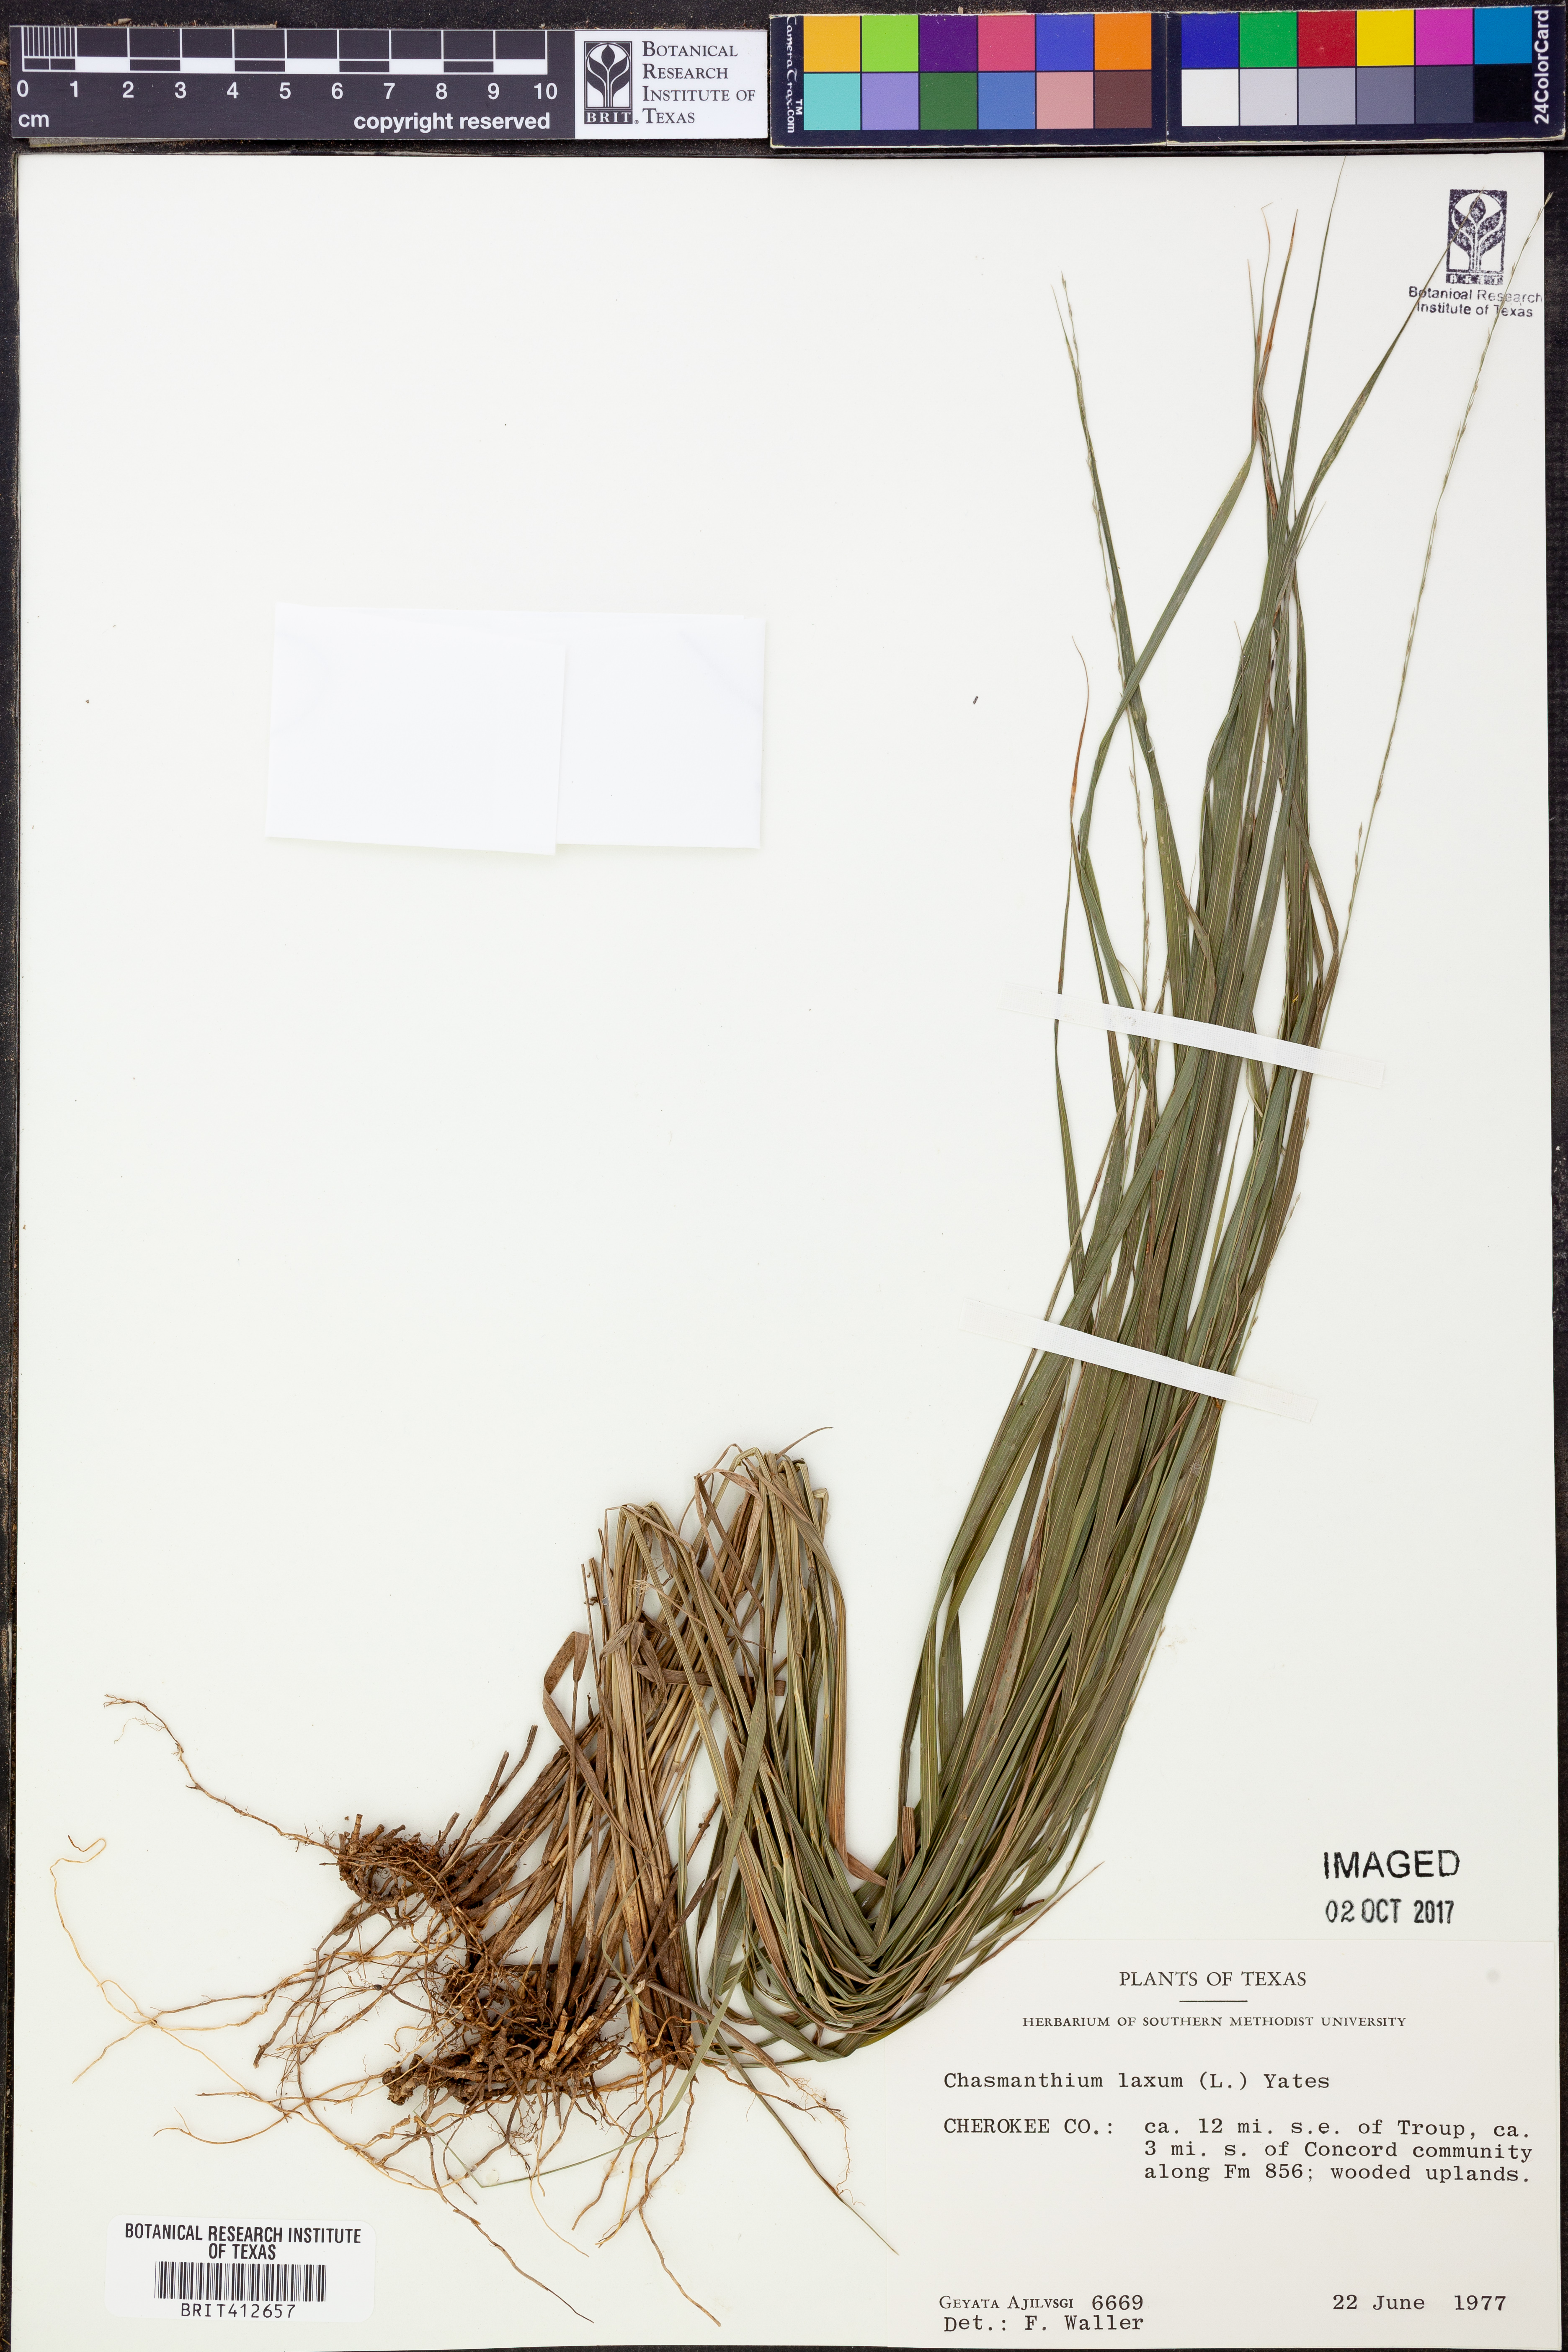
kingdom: Plantae
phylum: Tracheophyta
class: Liliopsida
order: Poales
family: Poaceae
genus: Chasmanthium
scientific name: Chasmanthium laxum
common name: Slender chasmanthium
